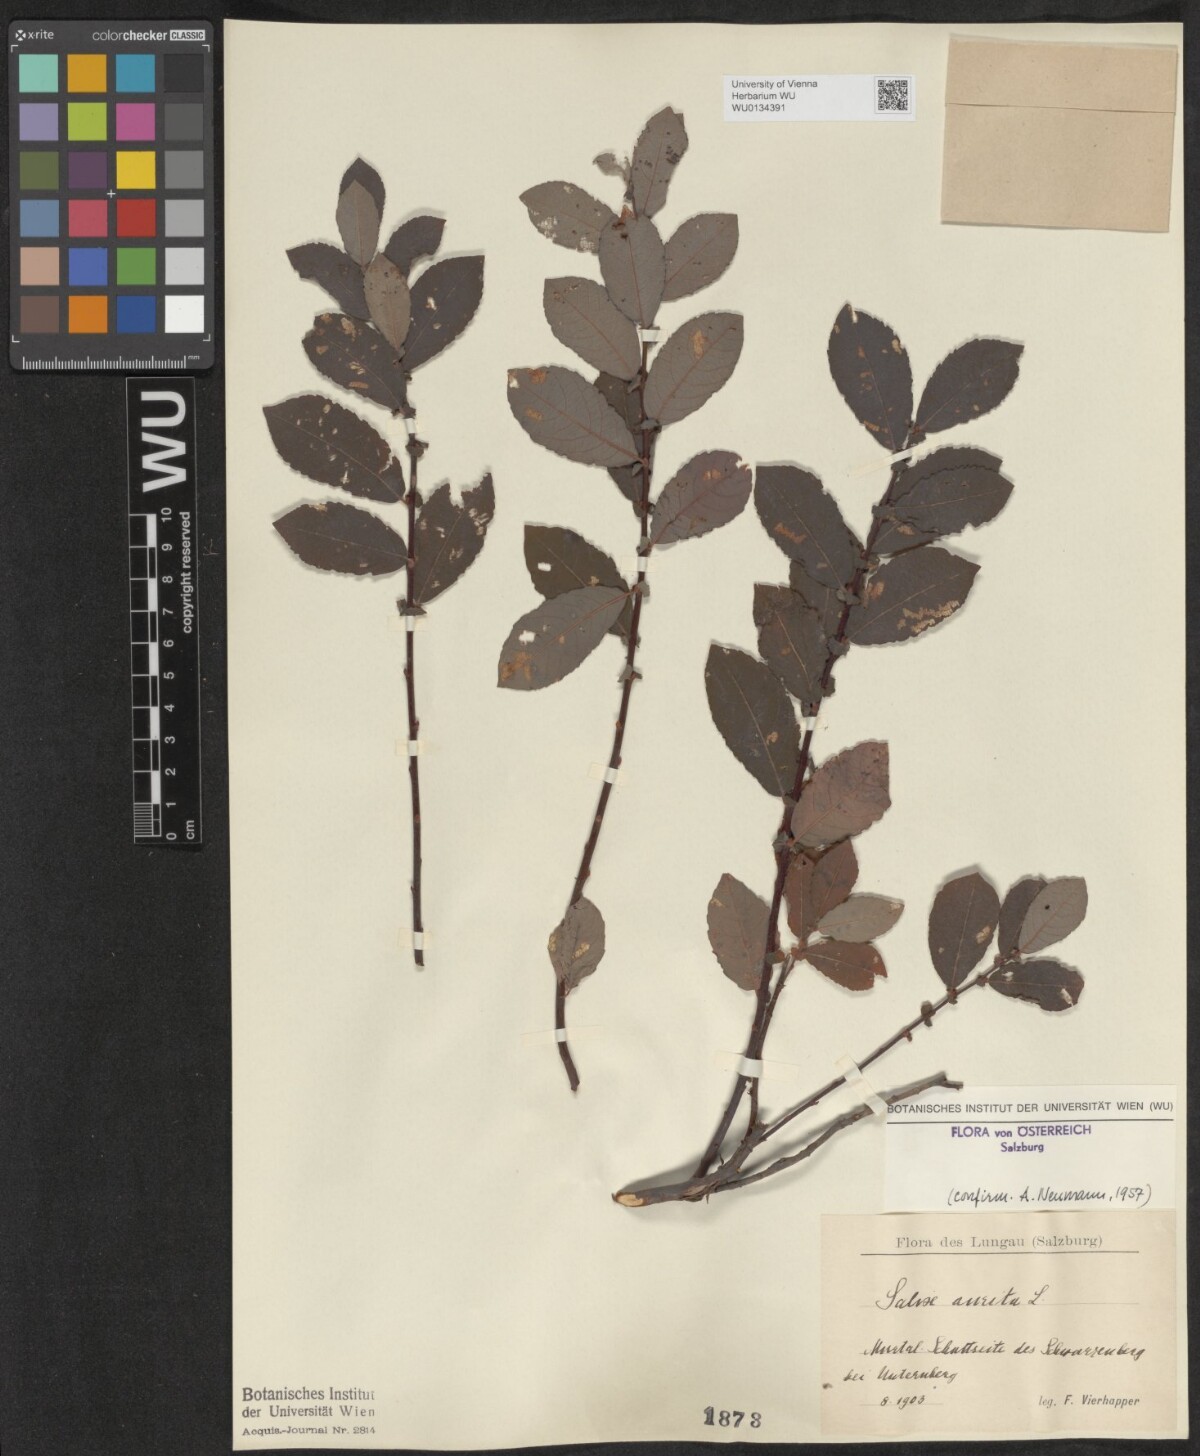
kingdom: Plantae
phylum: Tracheophyta
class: Magnoliopsida
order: Malpighiales
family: Salicaceae
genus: Salix
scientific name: Salix aurita
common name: Eared willow
